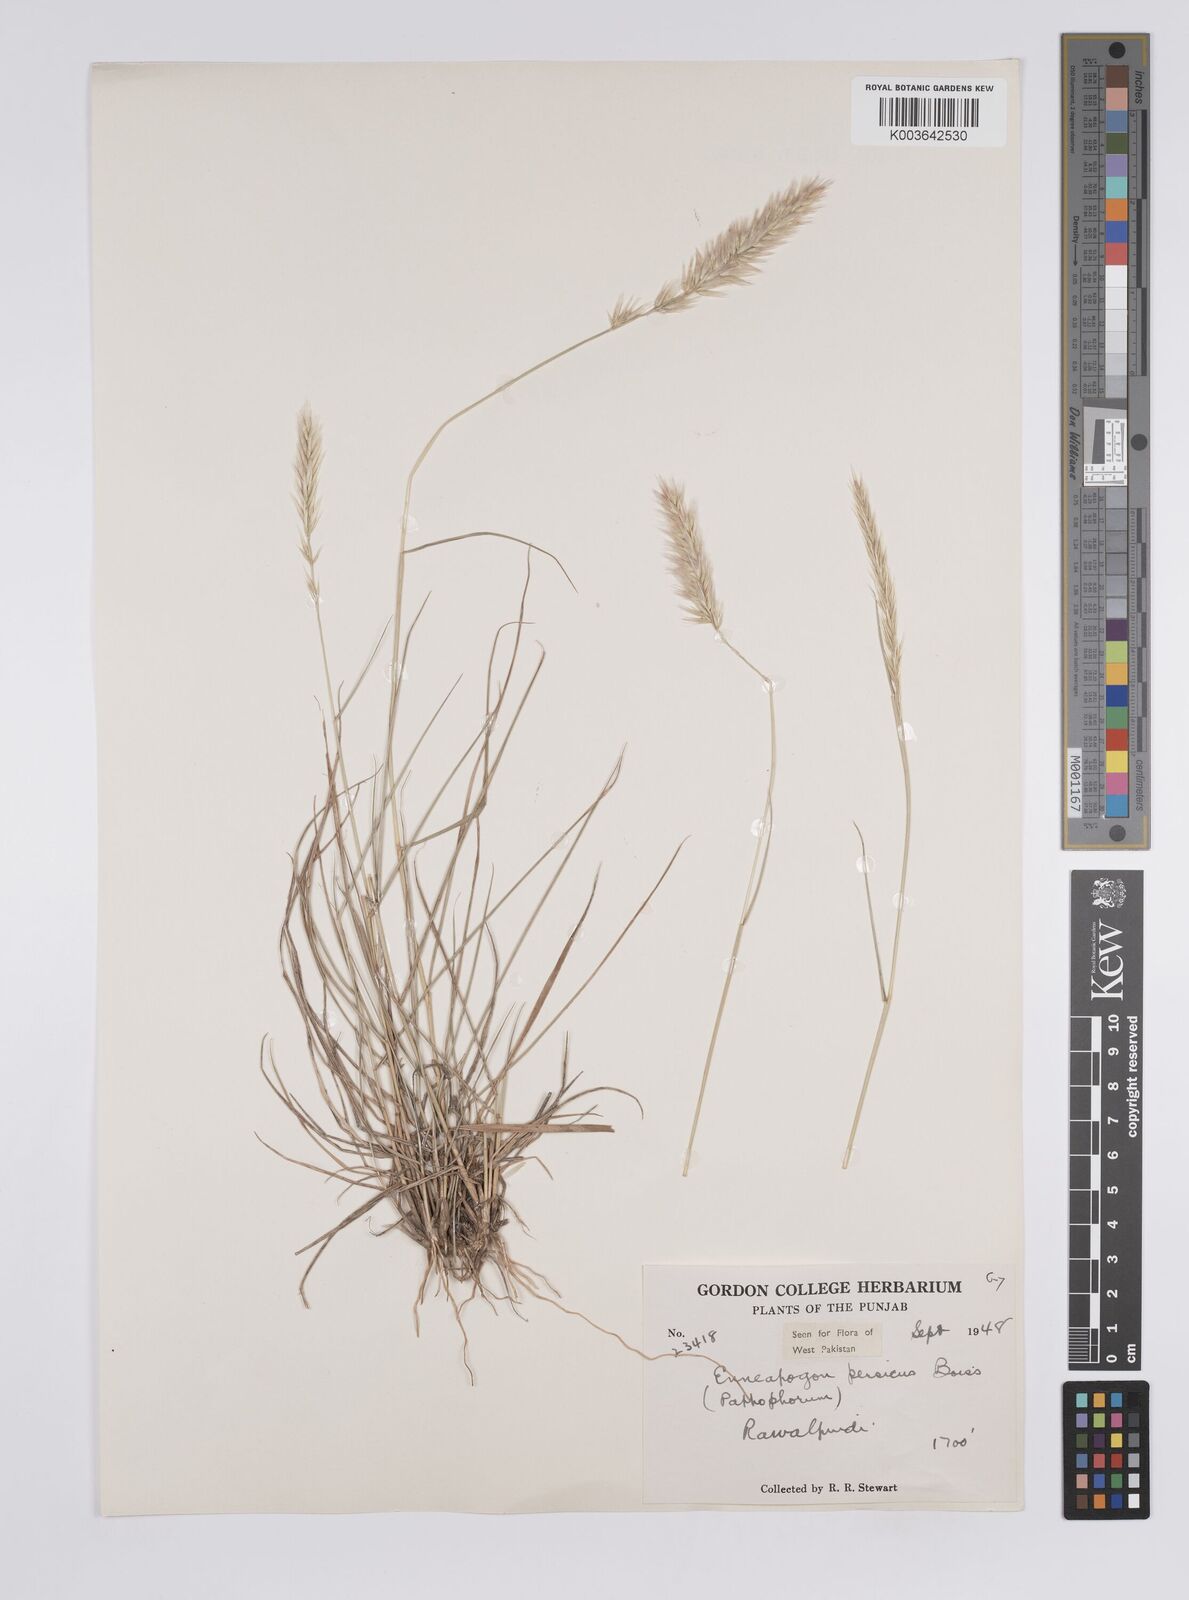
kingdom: Plantae
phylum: Tracheophyta
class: Liliopsida
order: Poales
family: Poaceae
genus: Enneapogon
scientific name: Enneapogon persicus
